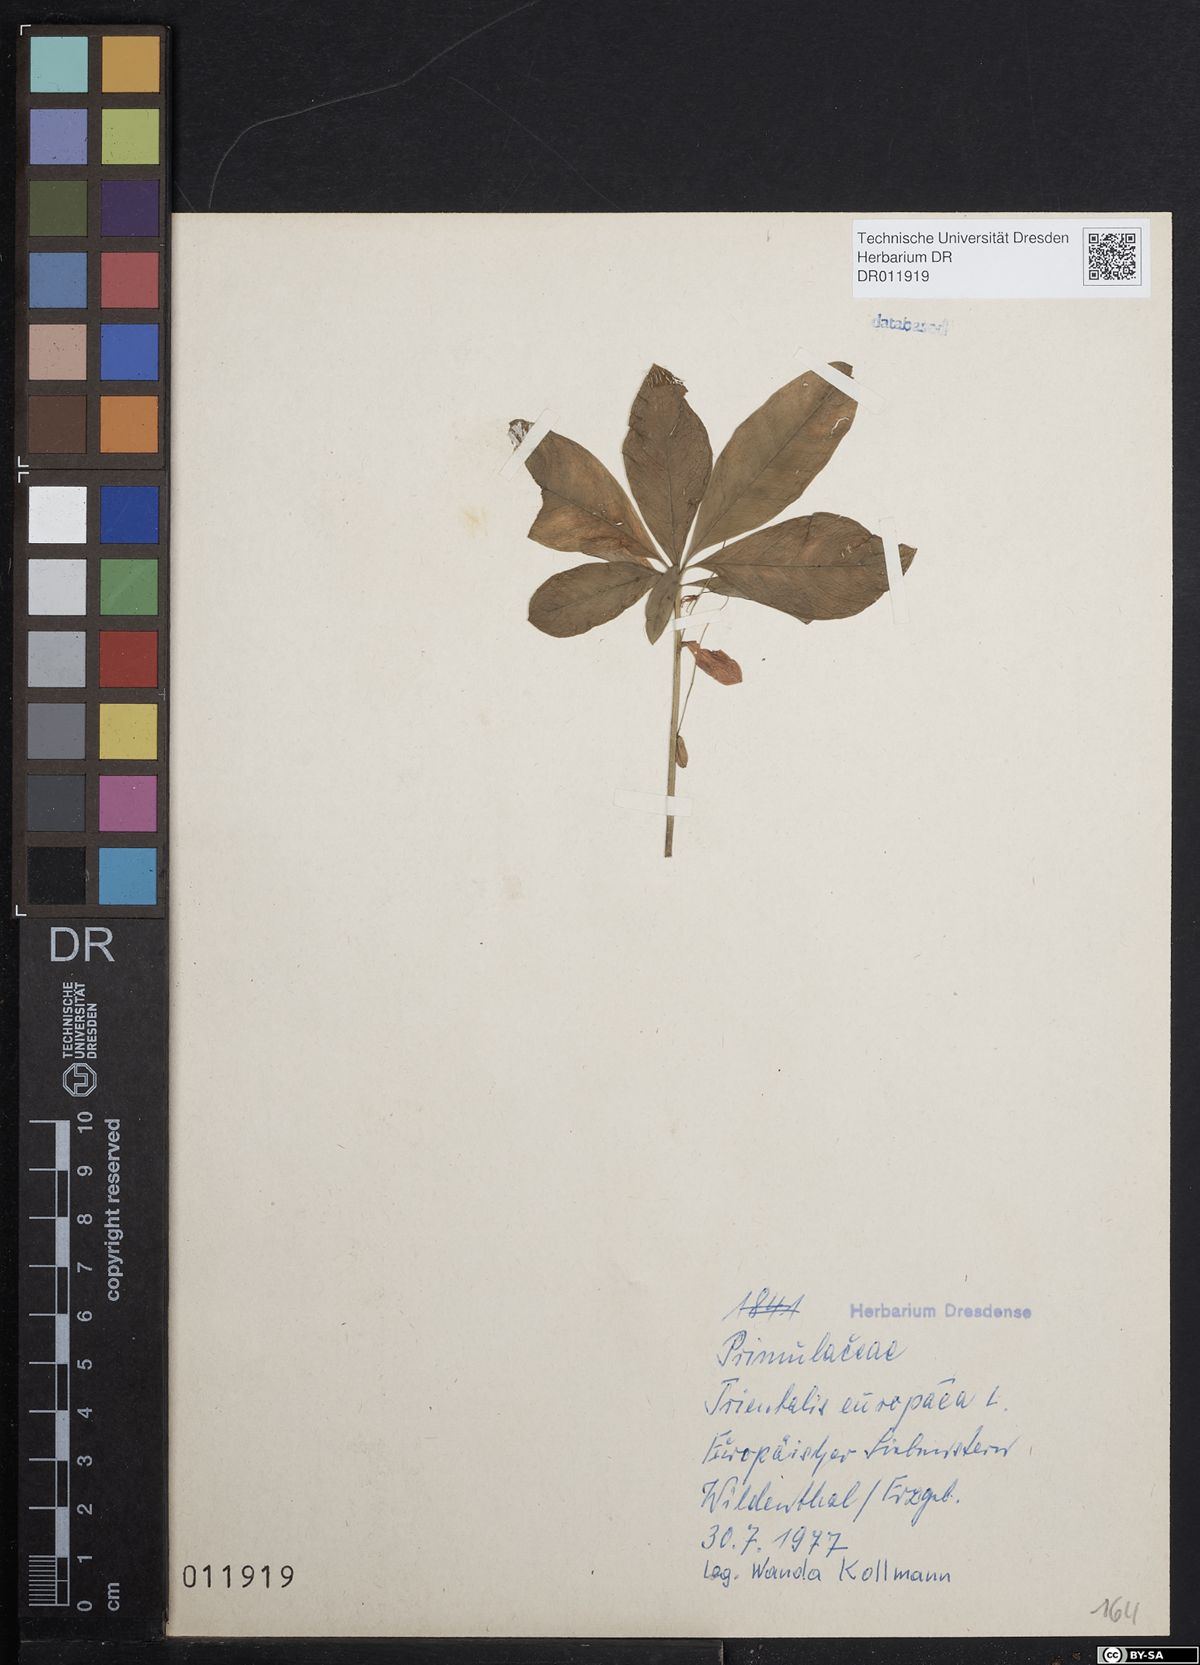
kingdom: Plantae
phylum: Tracheophyta
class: Magnoliopsida
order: Ericales
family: Primulaceae
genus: Lysimachia
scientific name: Lysimachia europaea
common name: Arctic starflower
